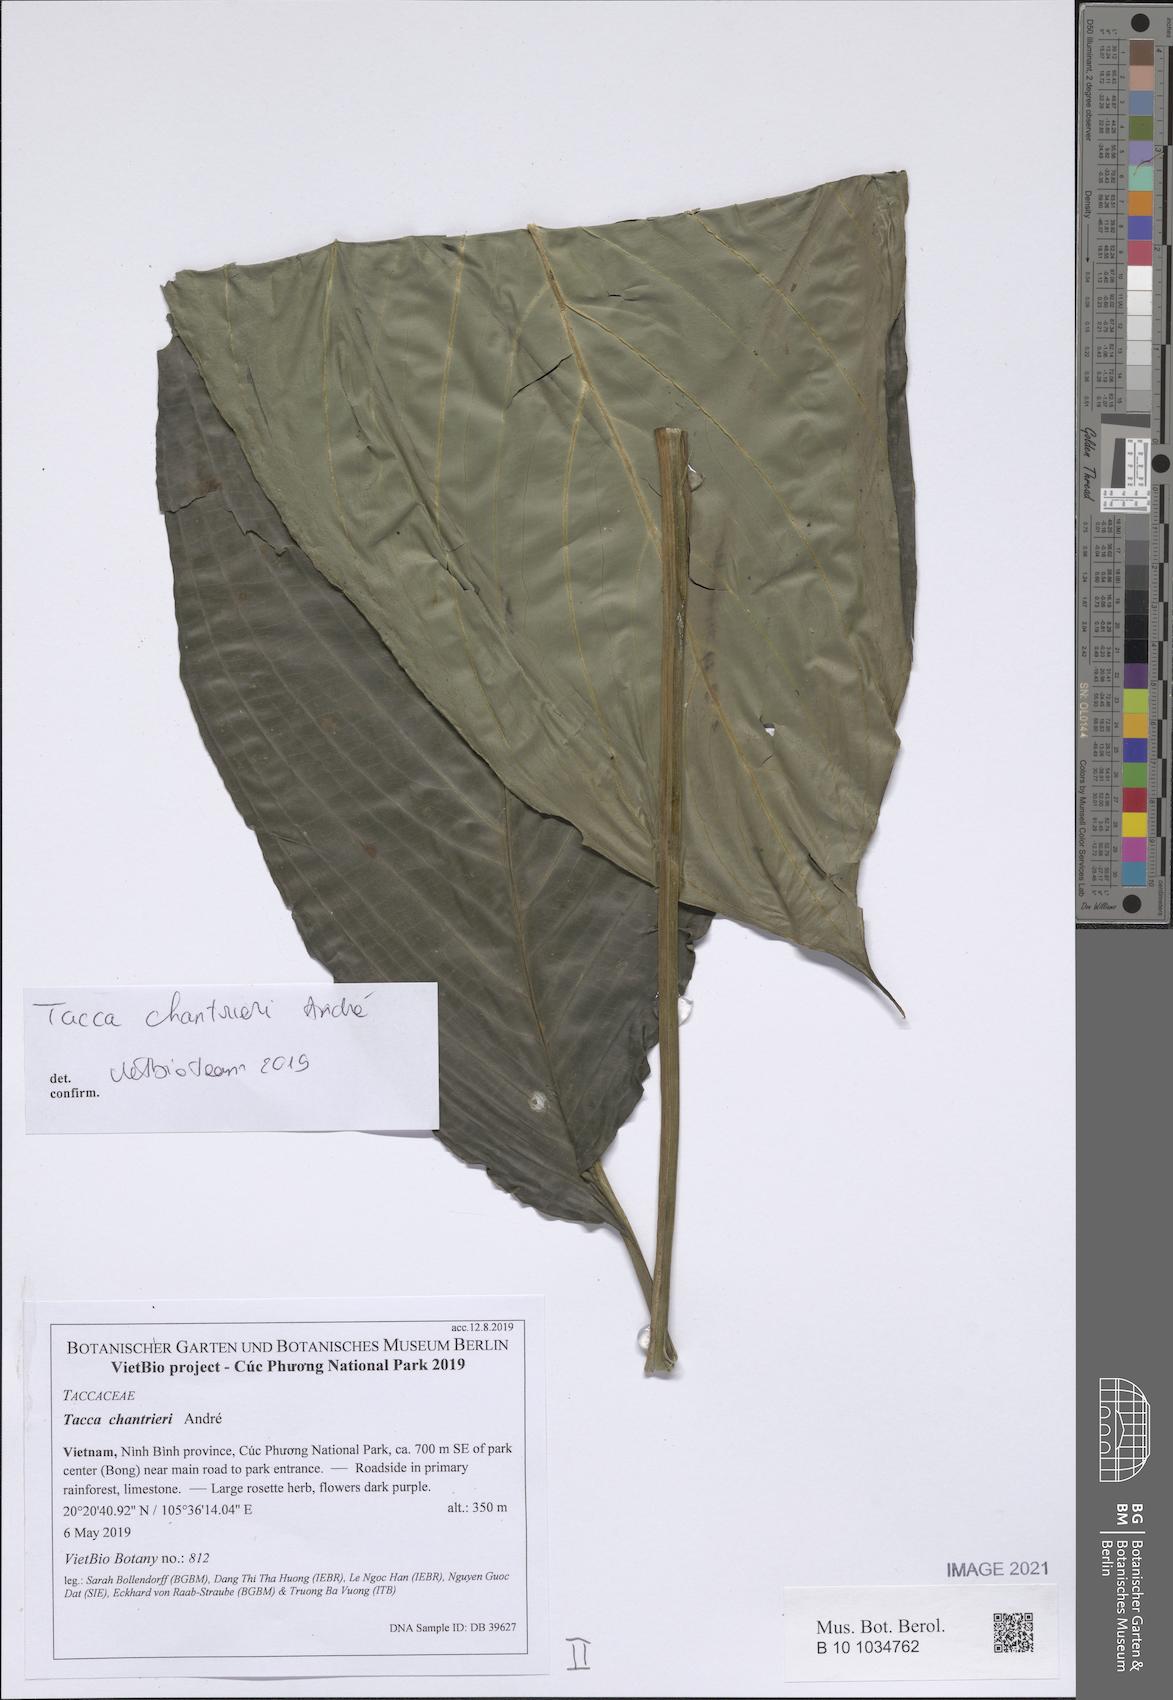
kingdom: Plantae
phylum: Tracheophyta
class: Liliopsida
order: Dioscoreales
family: Dioscoreaceae
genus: Tacca
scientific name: Tacca chantrieri
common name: Cat's-whiskers
